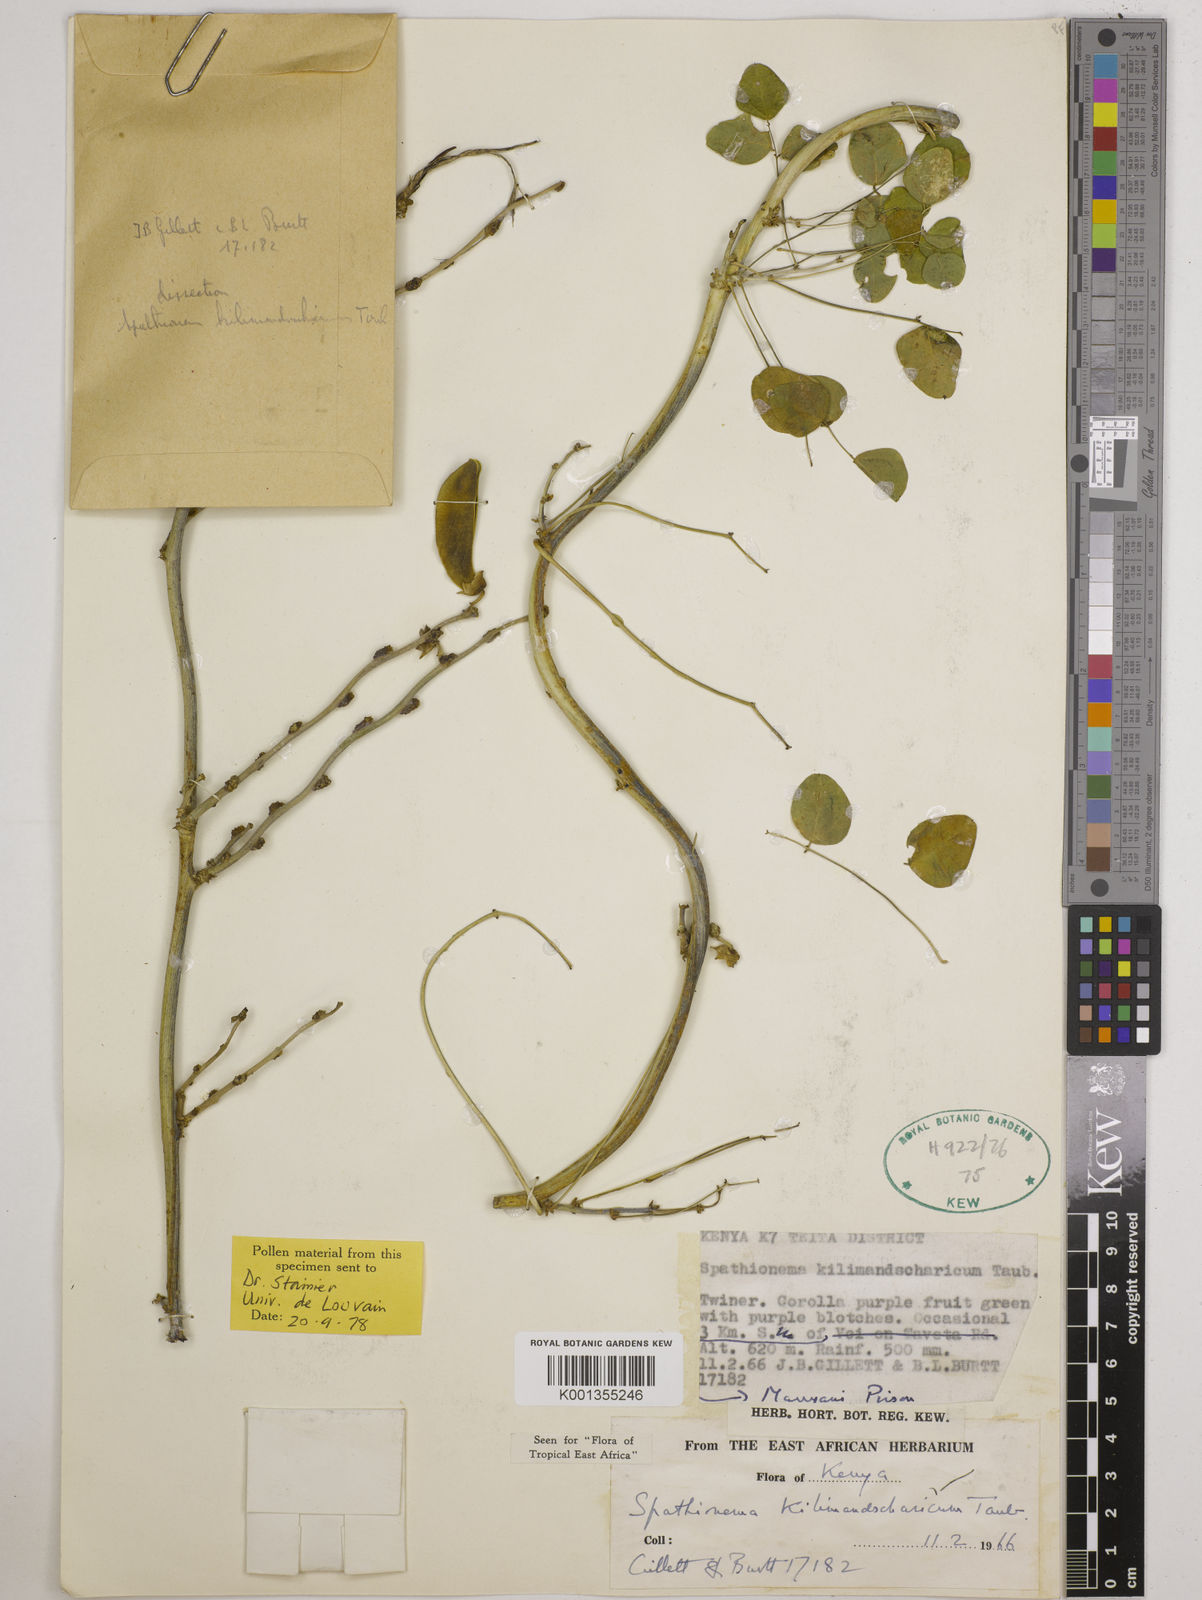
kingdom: Plantae
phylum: Tracheophyta
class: Magnoliopsida
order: Fabales
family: Fabaceae
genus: Spathionema
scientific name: Spathionema kilimandscharicum
